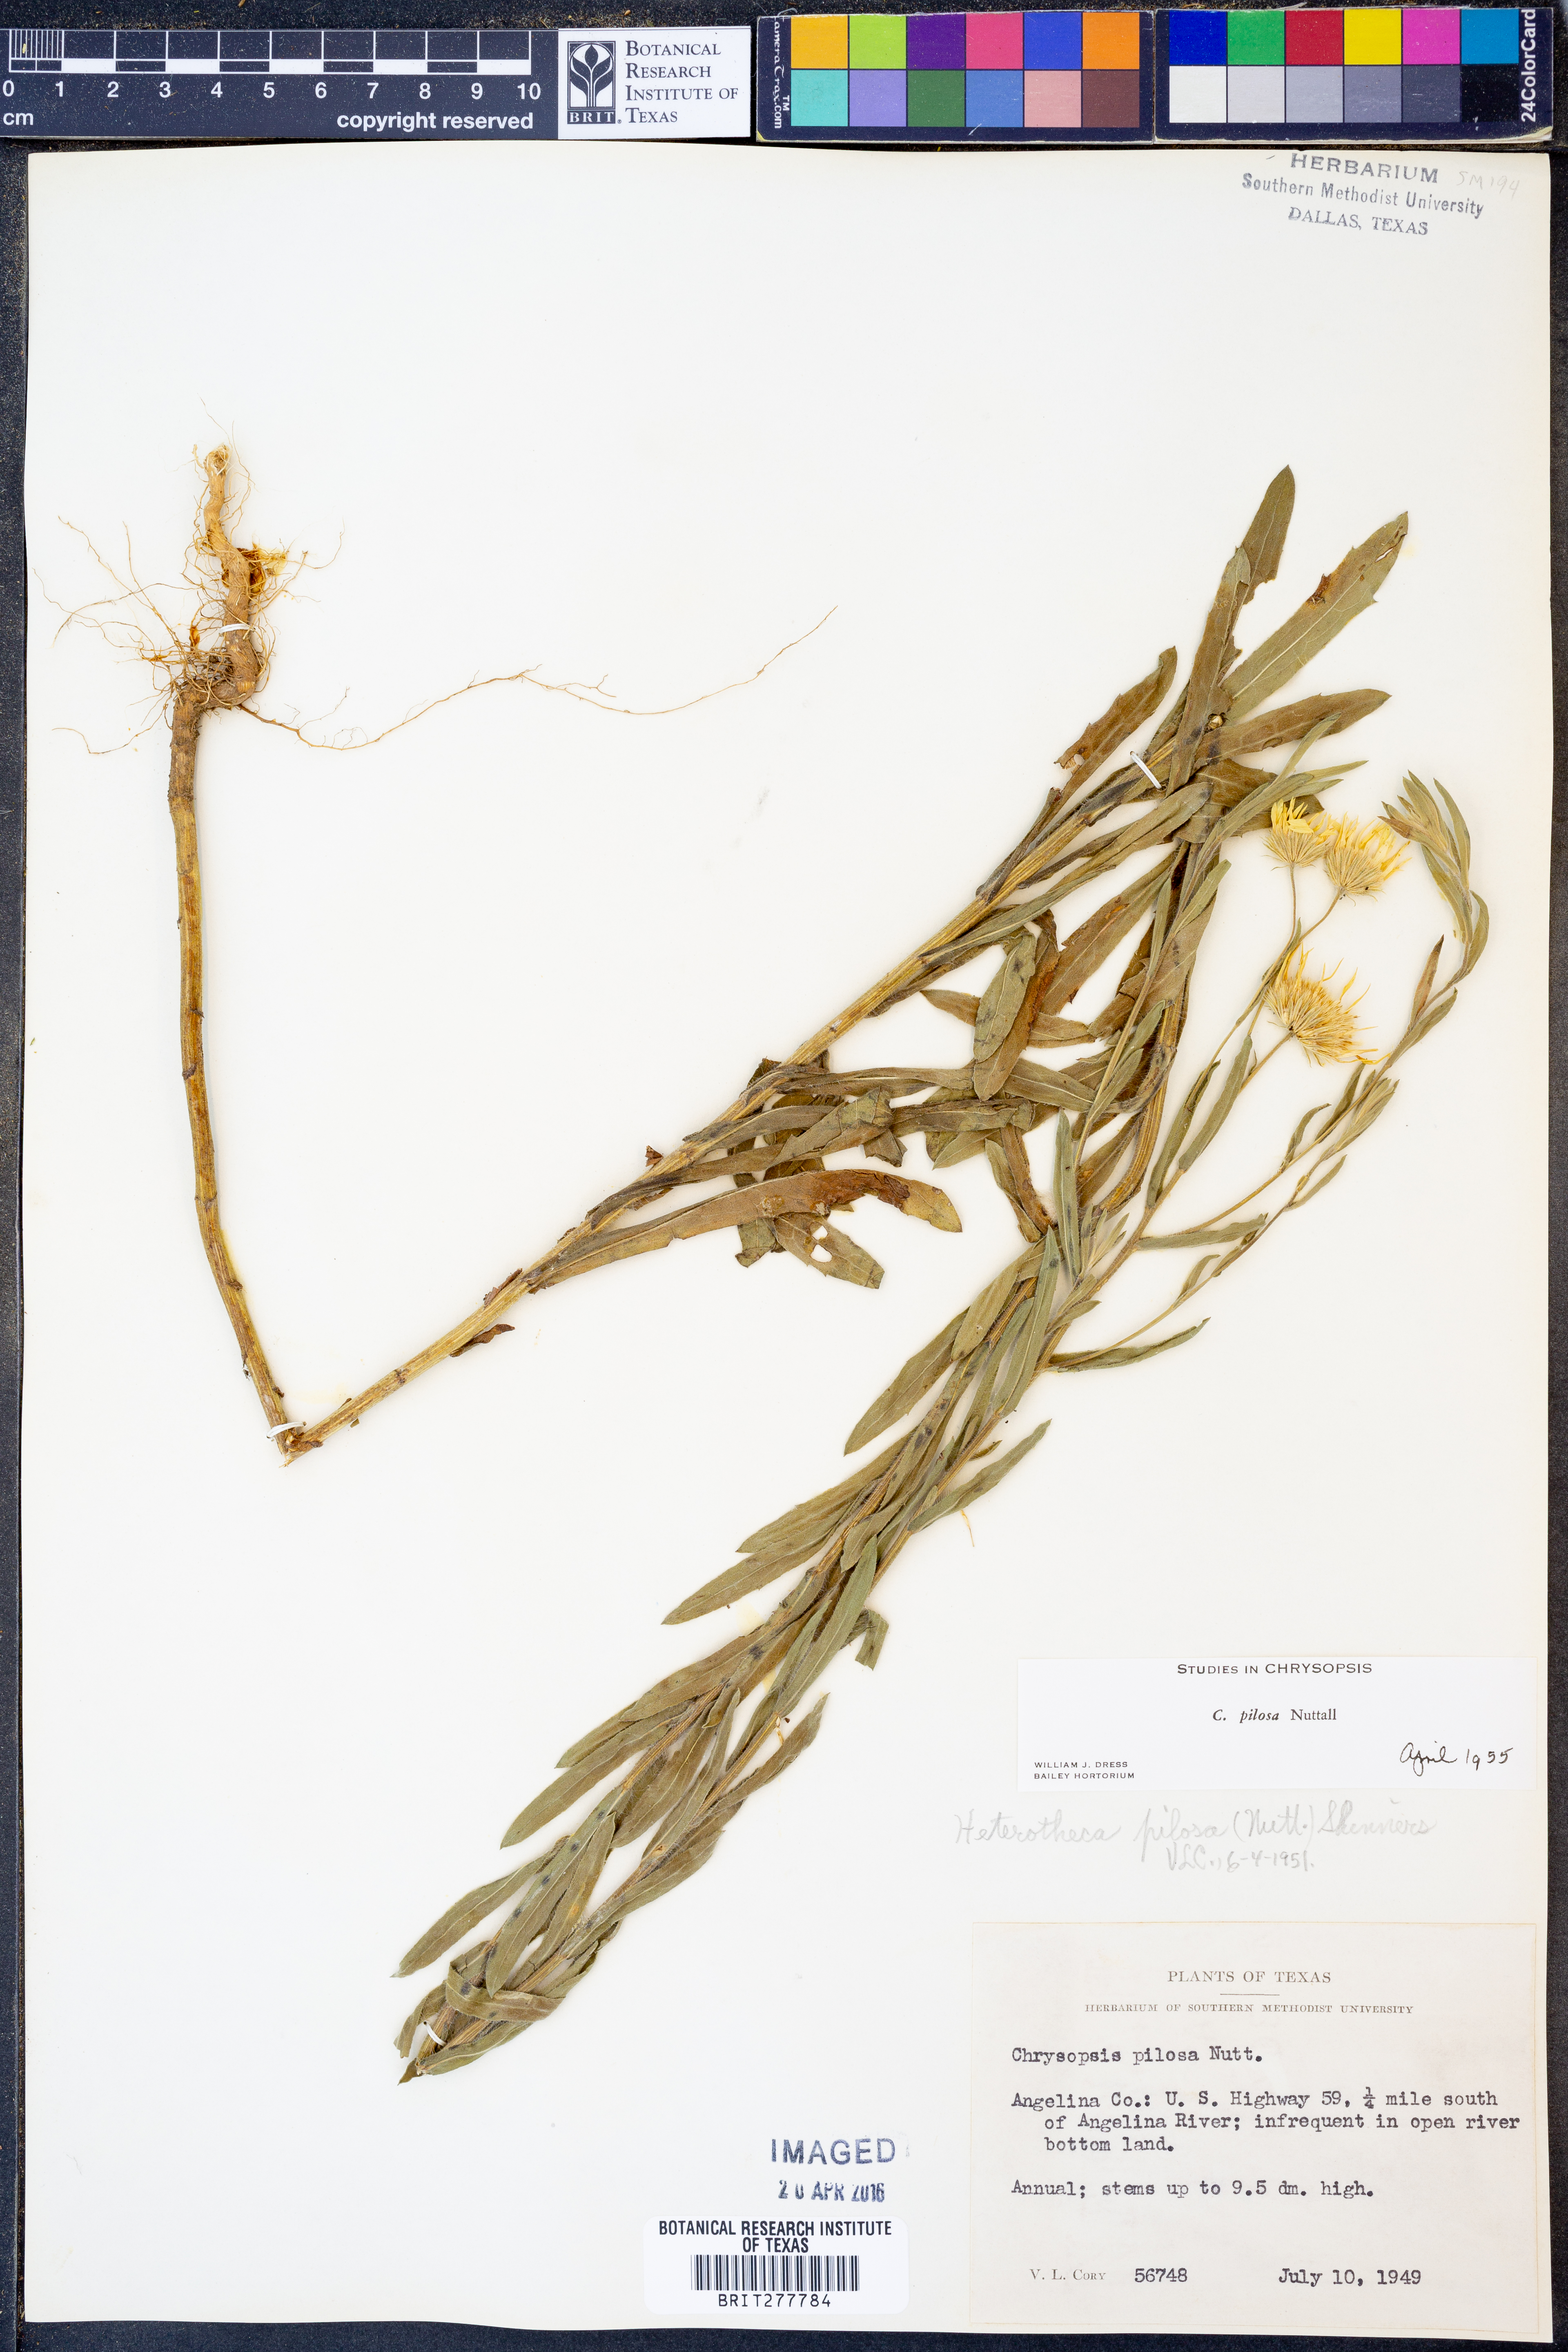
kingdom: Plantae
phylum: Tracheophyta
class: Magnoliopsida
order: Asterales
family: Asteraceae
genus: Bradburia
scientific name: Bradburia pilosa
